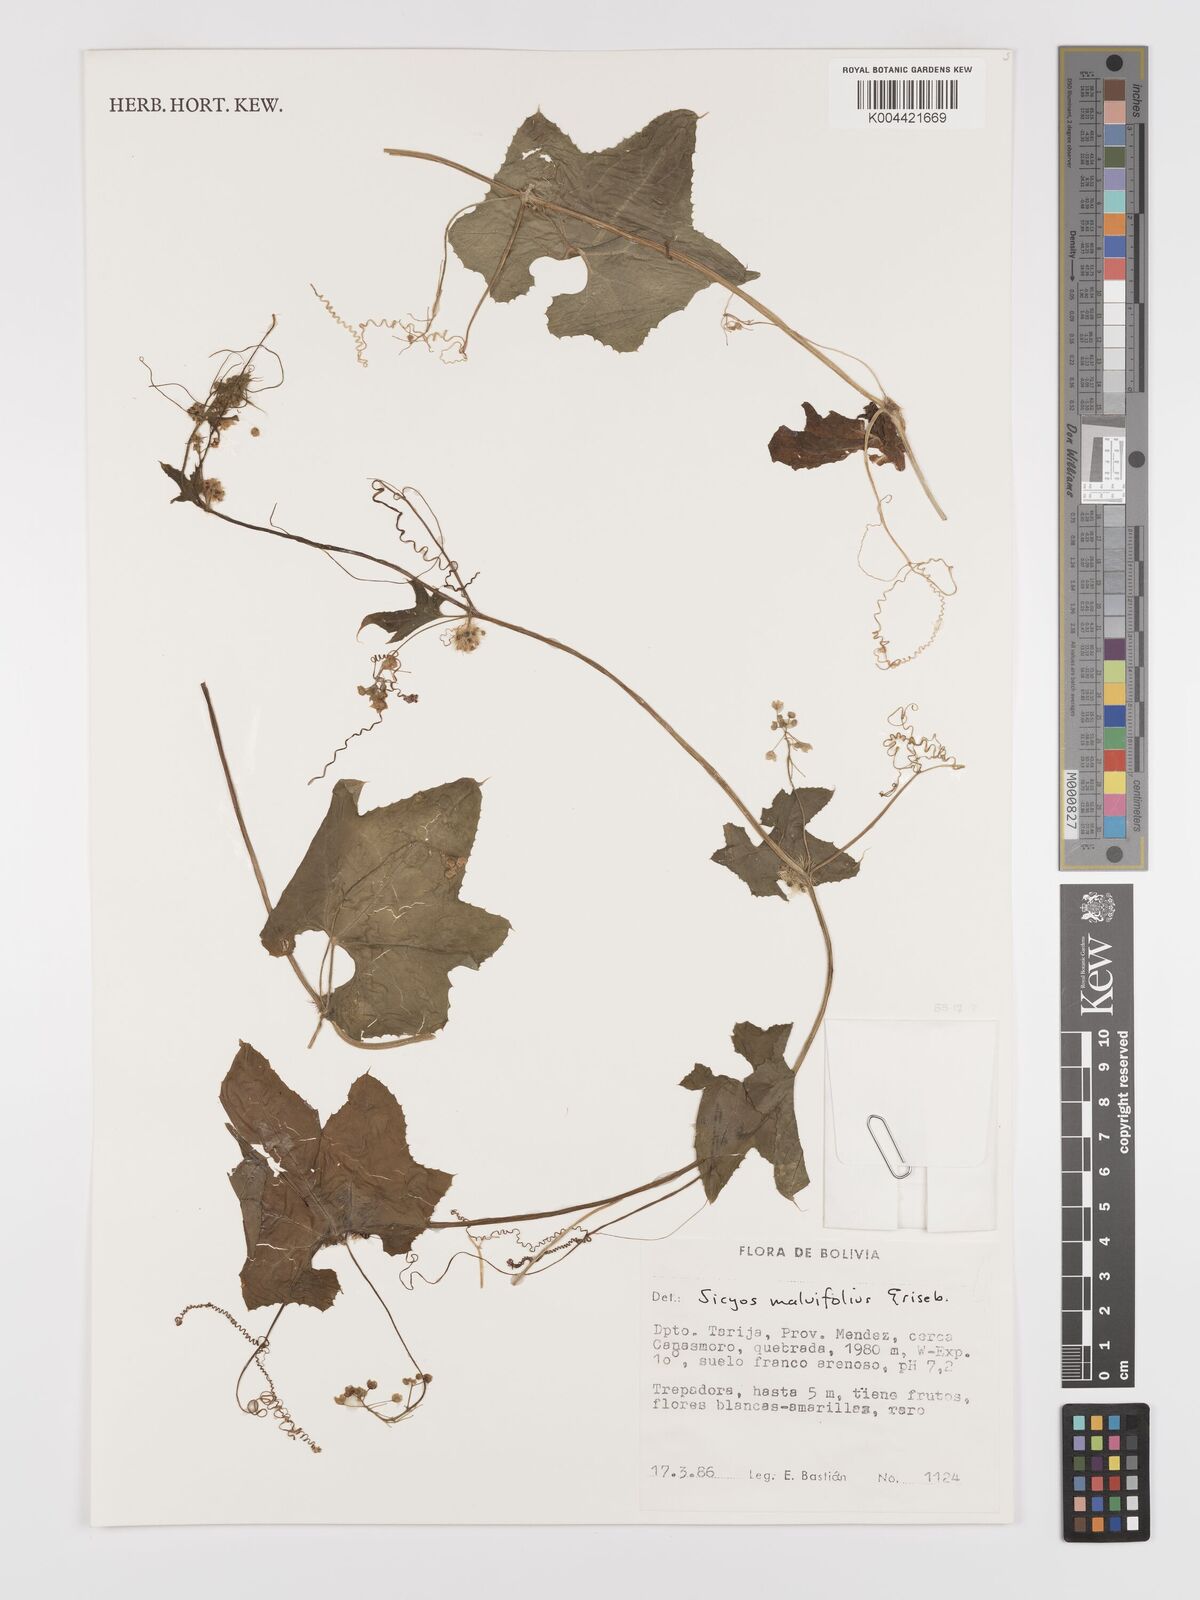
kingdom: Plantae
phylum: Tracheophyta
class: Magnoliopsida
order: Cucurbitales
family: Cucurbitaceae
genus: Sicyos
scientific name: Sicyos malvifolius
